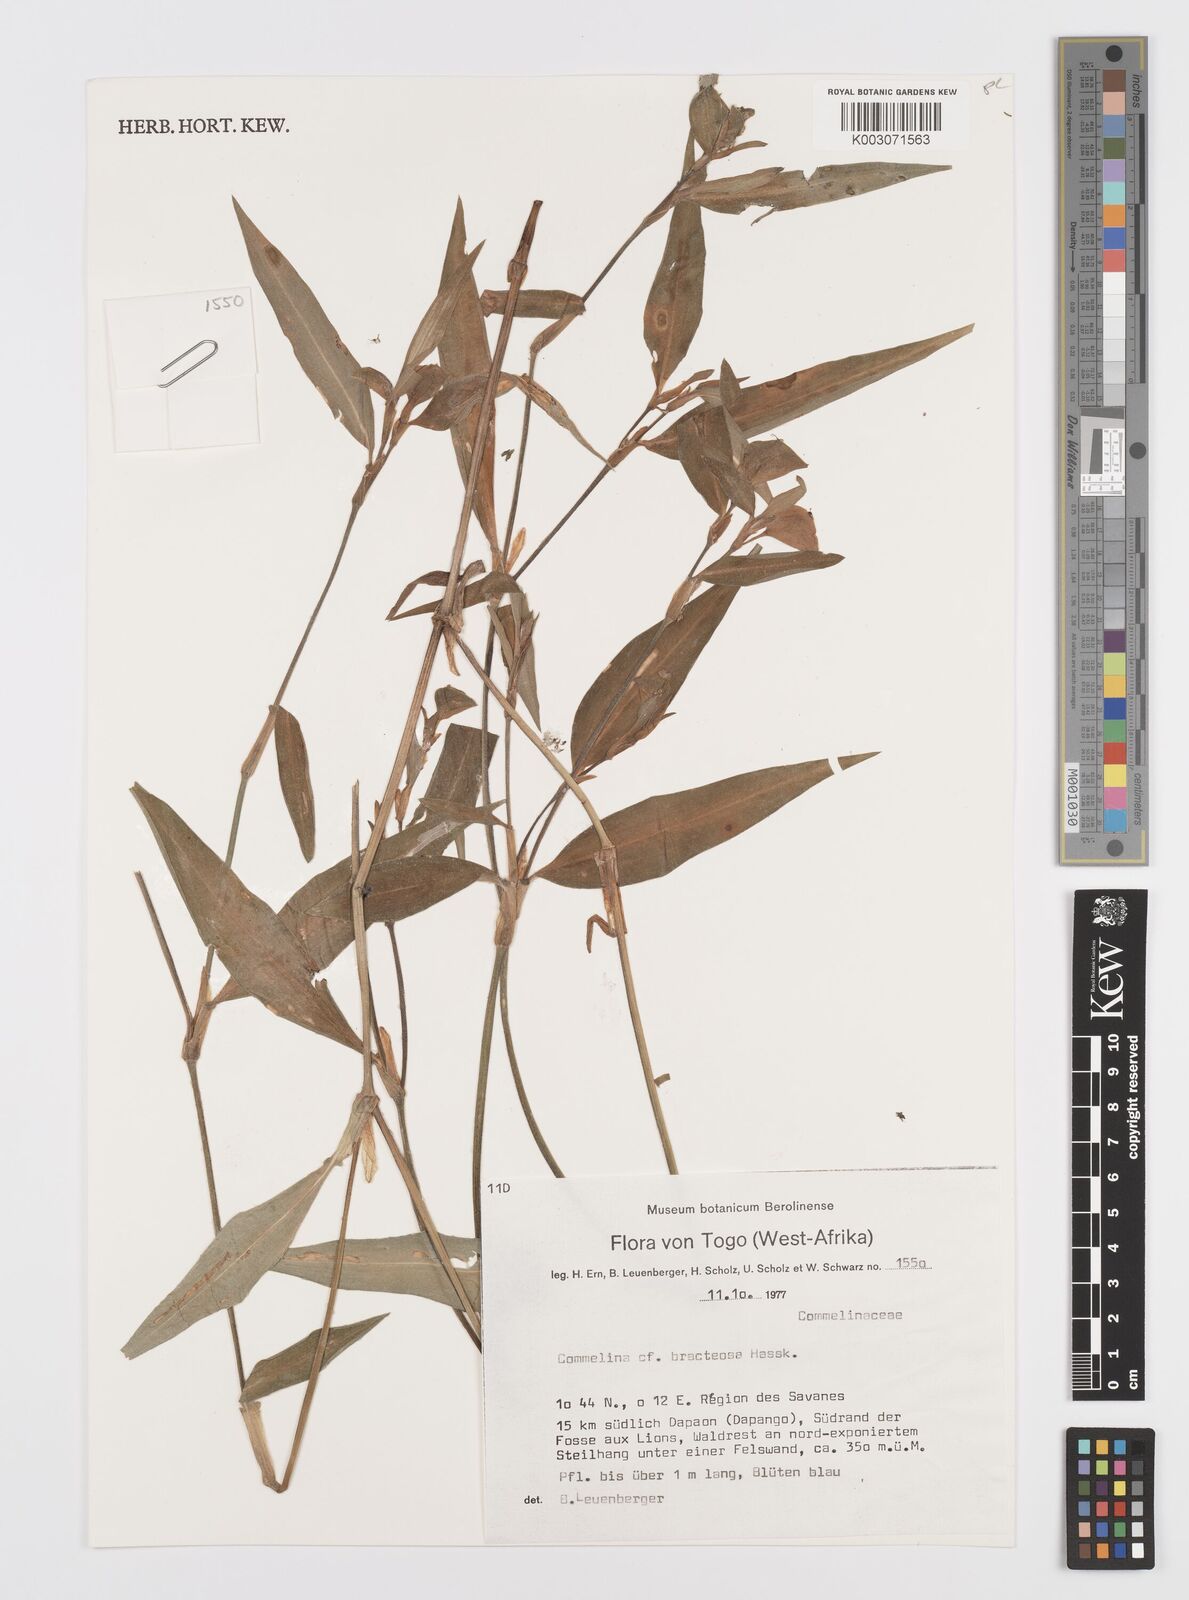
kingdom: Plantae
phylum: Tracheophyta
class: Liliopsida
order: Commelinales
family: Commelinaceae
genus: Commelina
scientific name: Commelina bracteosa
